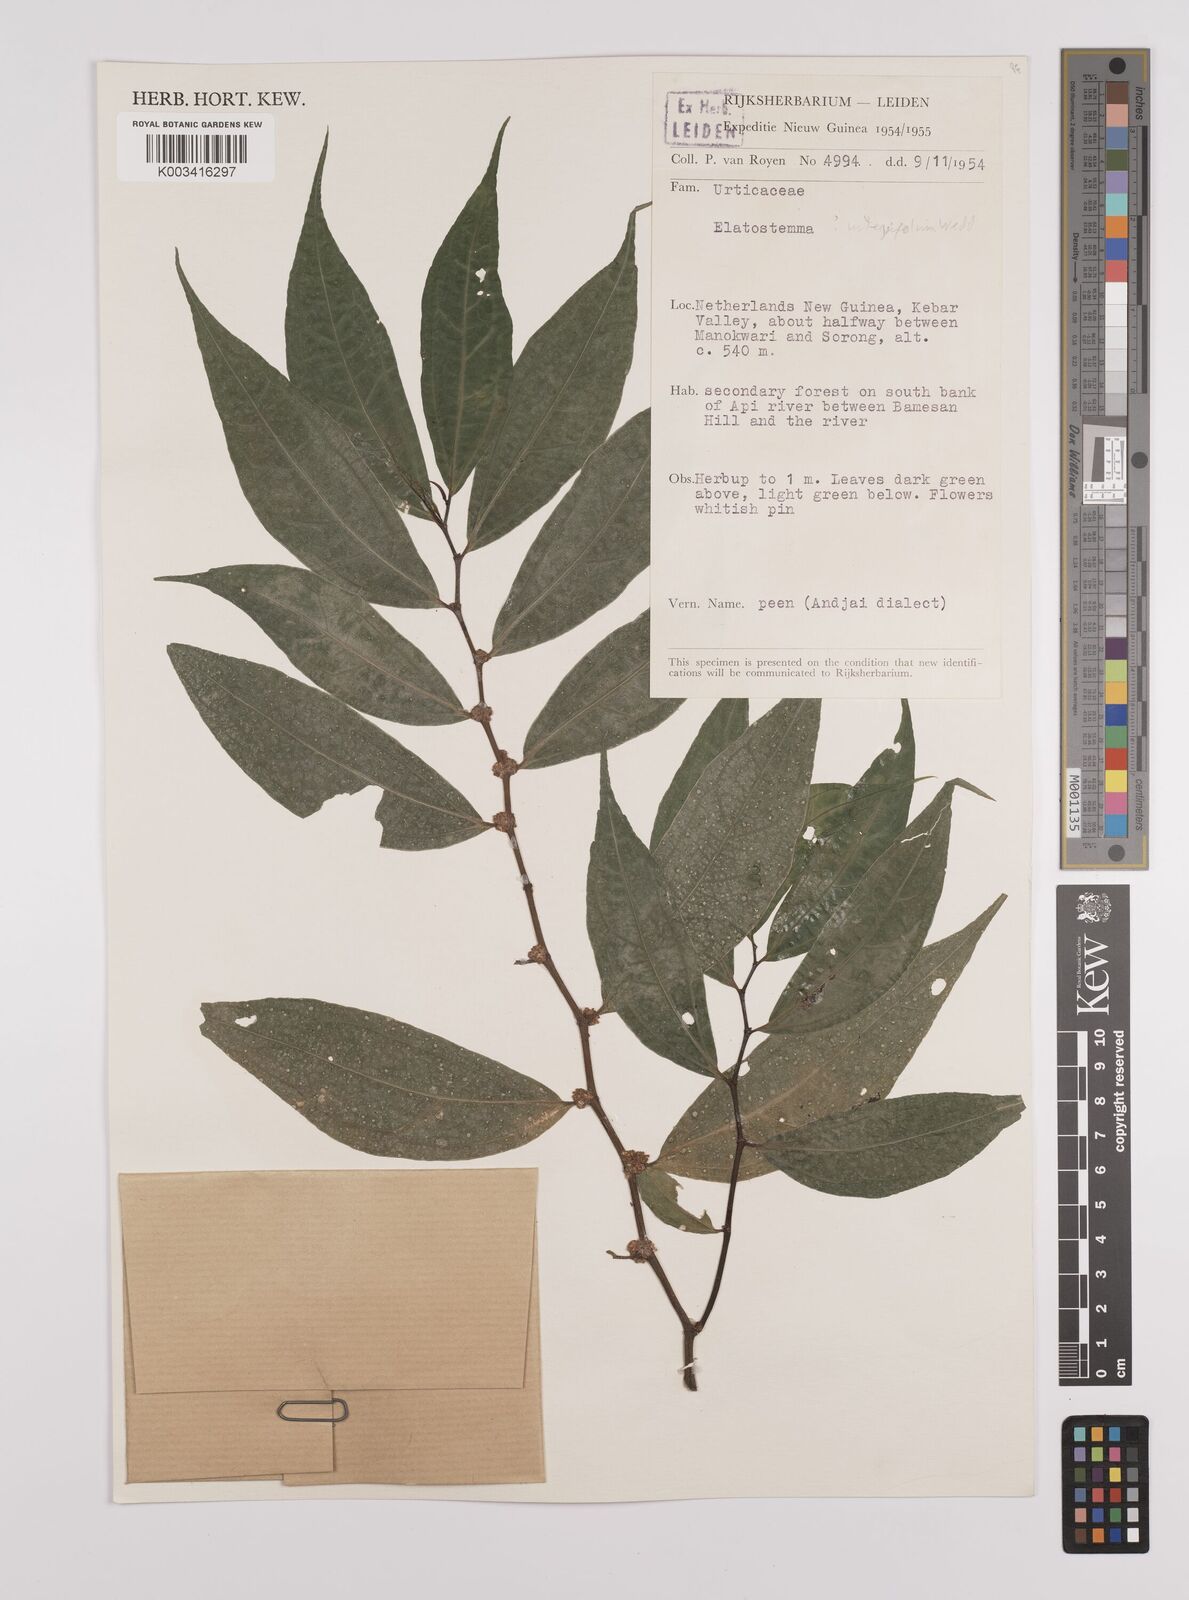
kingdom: Plantae
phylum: Tracheophyta
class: Magnoliopsida
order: Rosales
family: Urticaceae
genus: Elatostema
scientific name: Elatostema integrifolium
